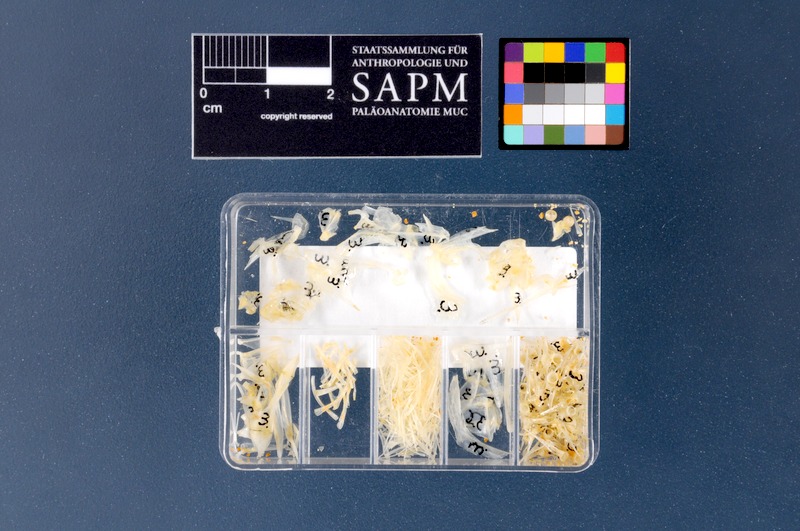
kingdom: Animalia
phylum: Chordata
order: Perciformes
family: Cepolidae
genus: Cepola
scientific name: Cepola macrophthalma
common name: Red bandfish
